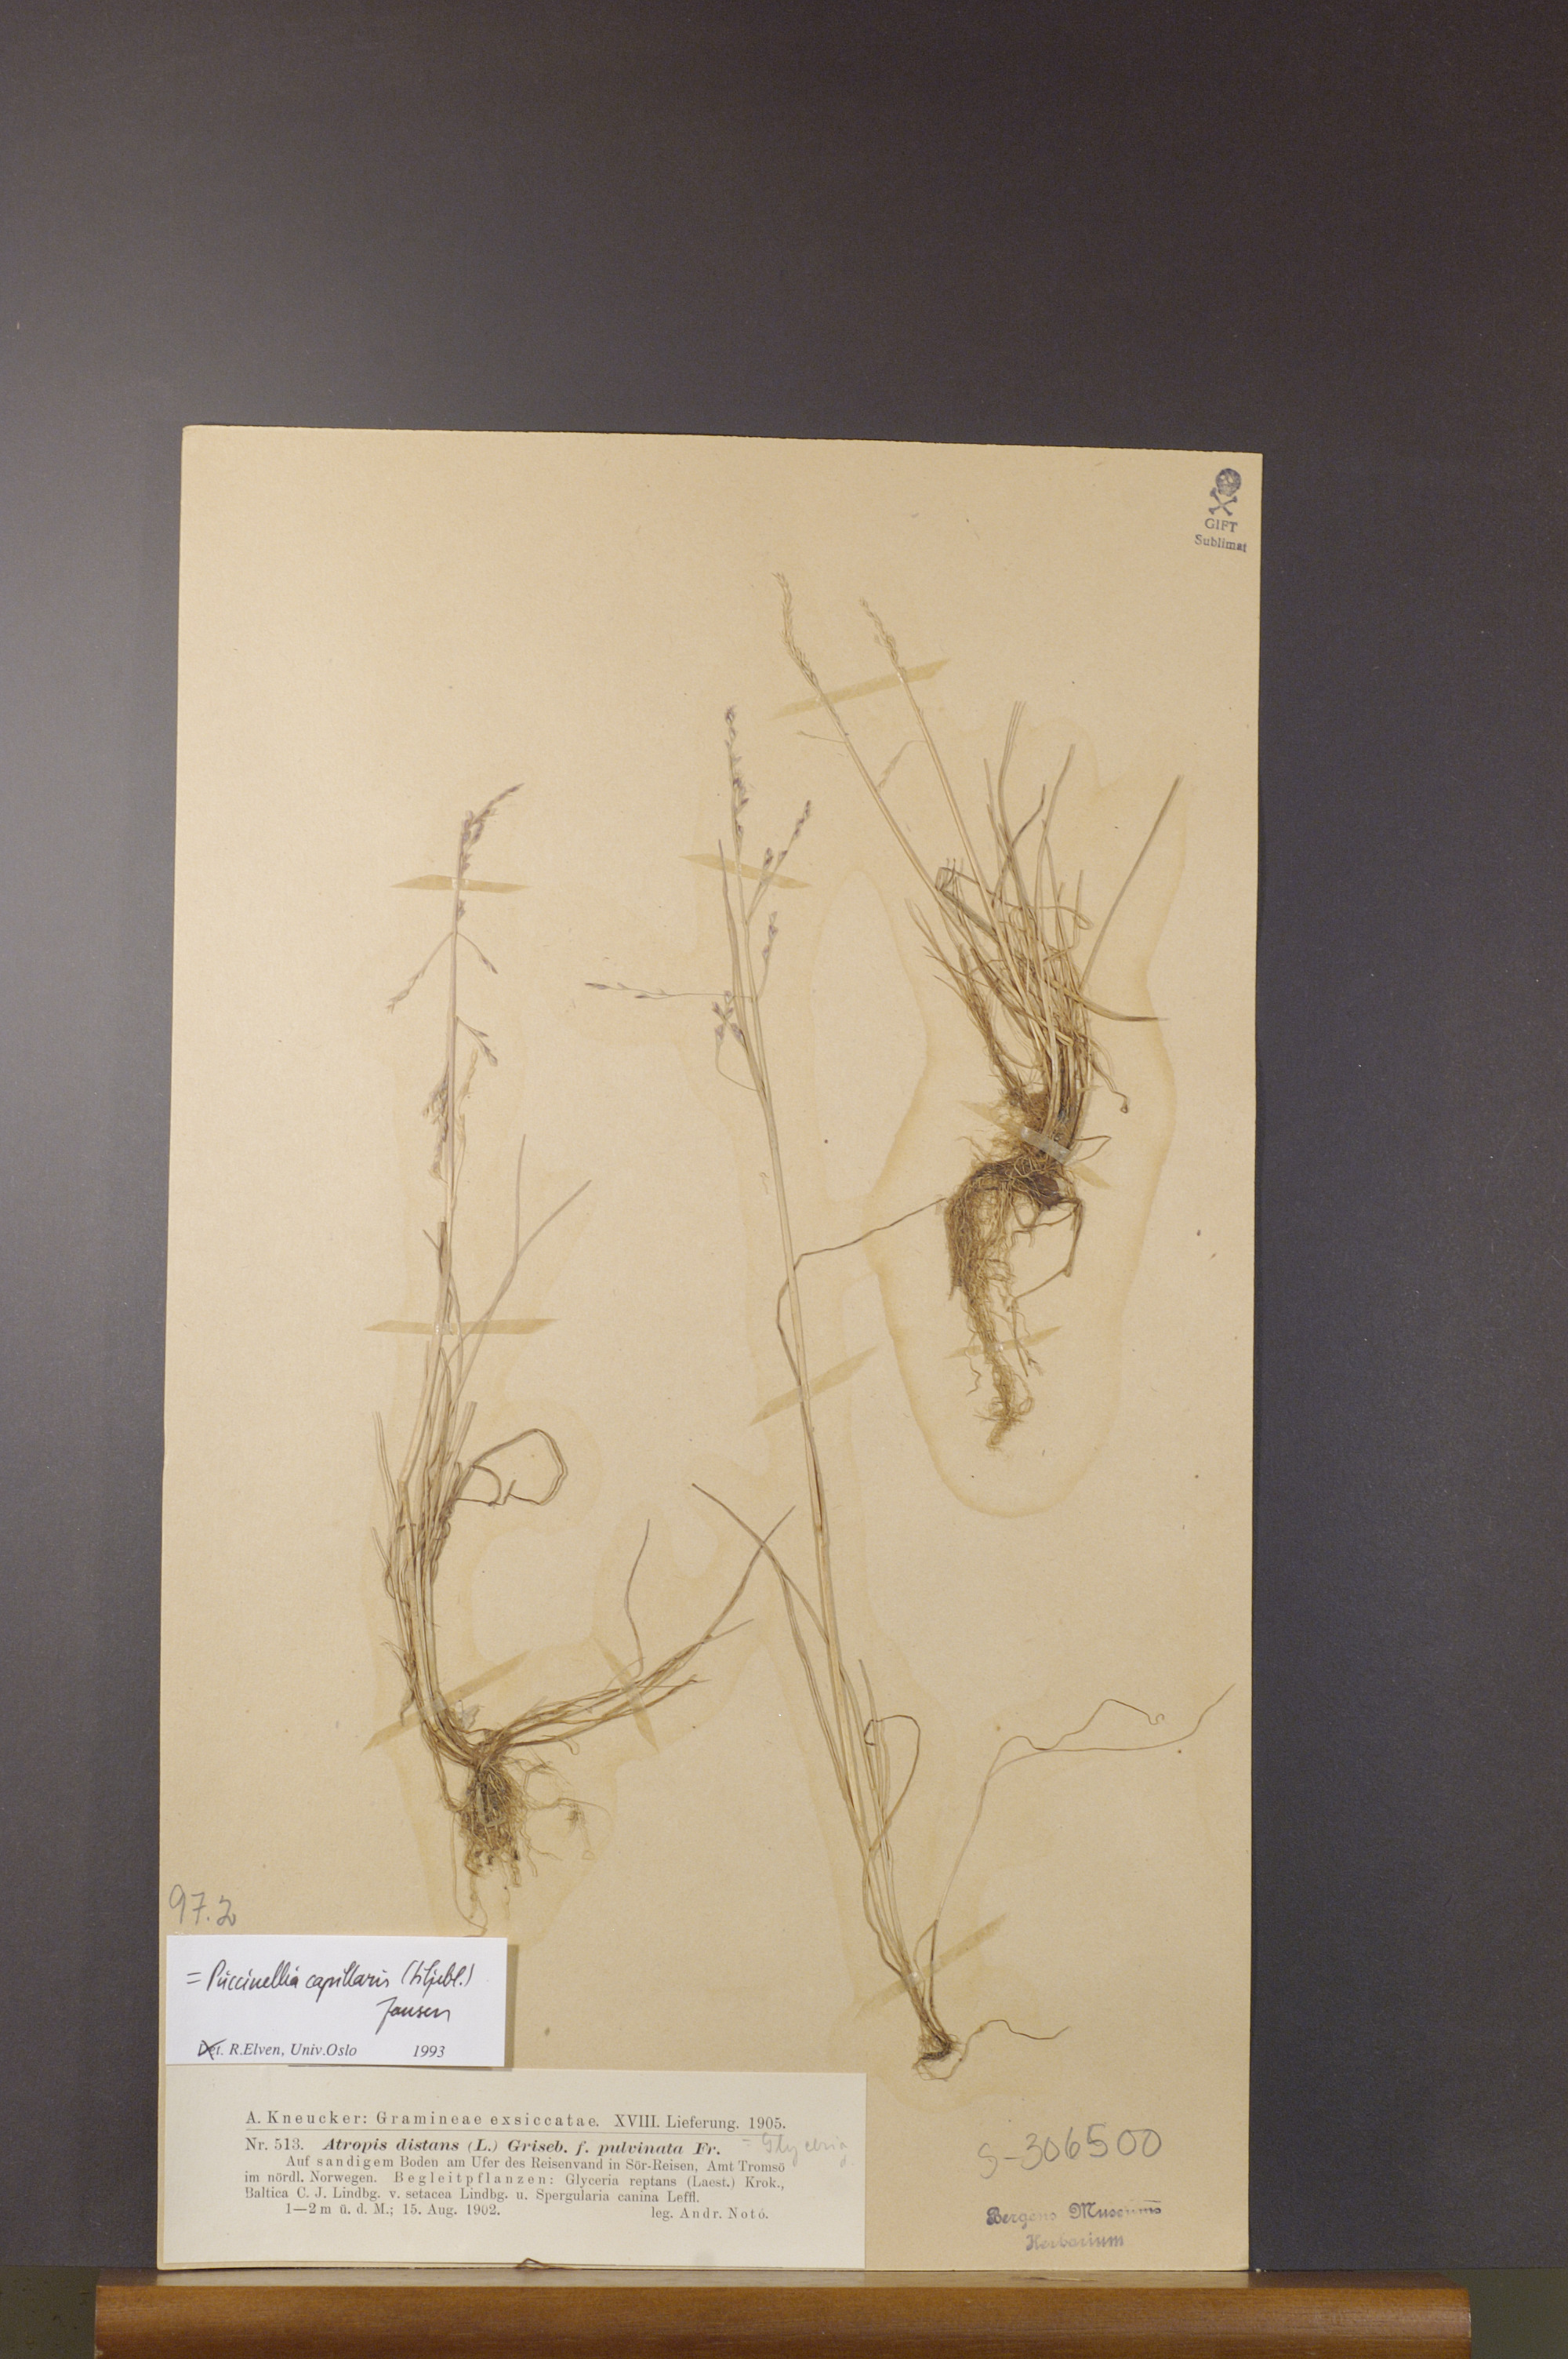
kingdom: Plantae
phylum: Tracheophyta
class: Liliopsida
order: Poales
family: Poaceae
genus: Puccinellia
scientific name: Puccinellia distans
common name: Weeping alkaligrass
